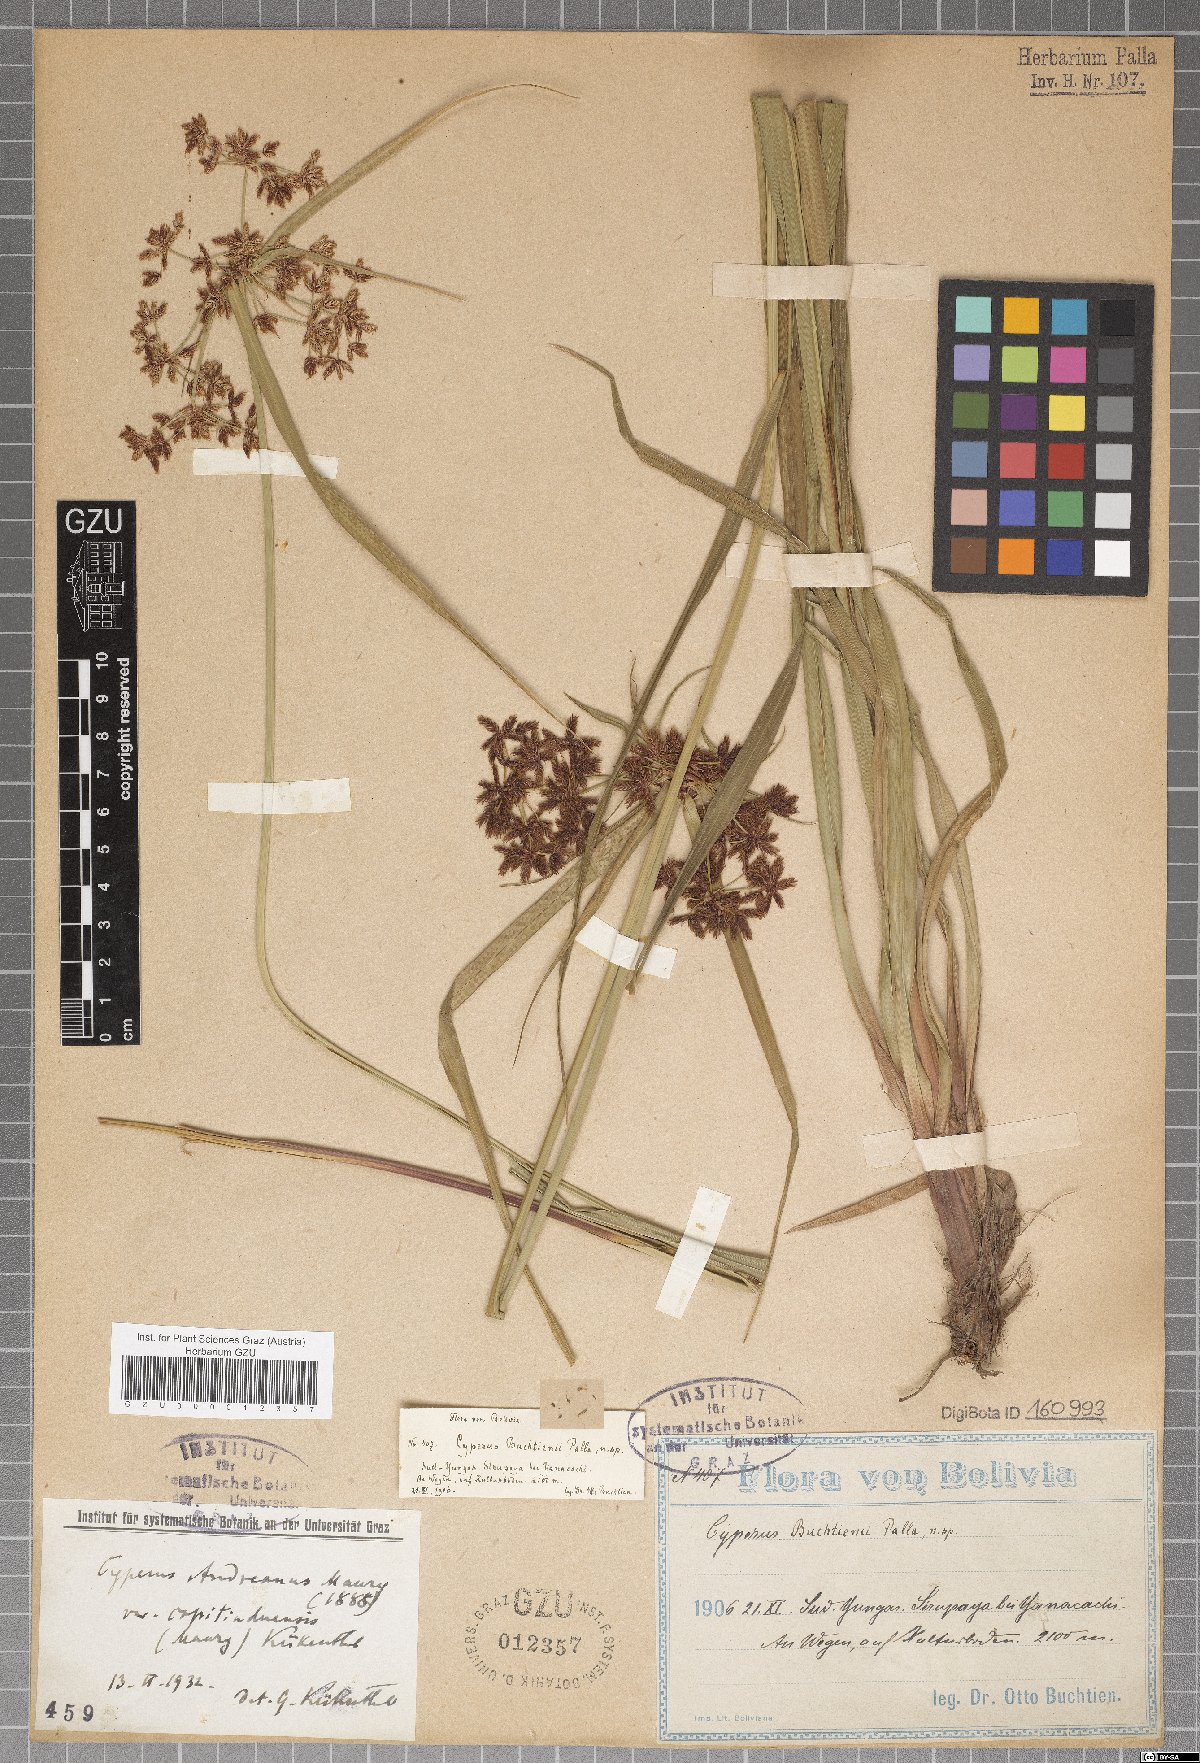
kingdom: Plantae
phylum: Tracheophyta
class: Liliopsida
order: Poales
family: Cyperaceae
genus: Cyperus
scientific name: Cyperus buchtienii
